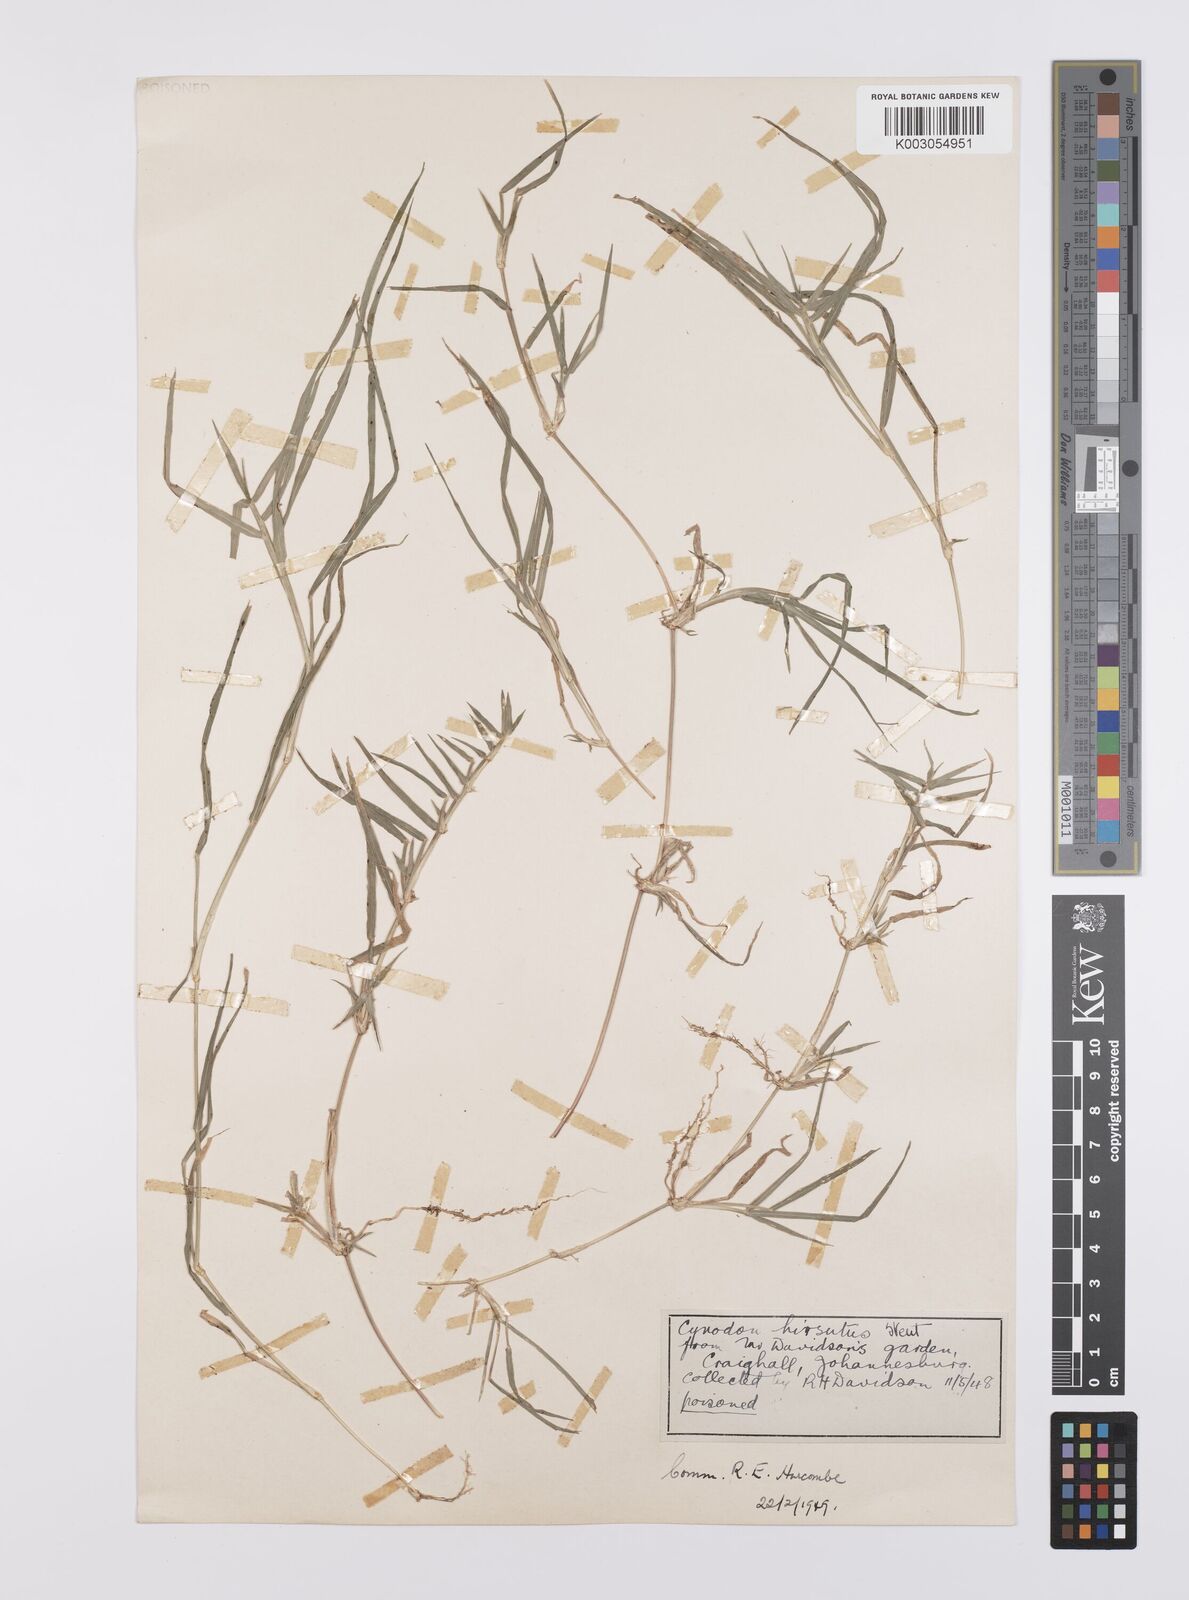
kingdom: Plantae
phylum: Tracheophyta
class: Liliopsida
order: Poales
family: Poaceae
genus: Cynodon
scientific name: Cynodon incompletus
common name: African bermuda-grass
